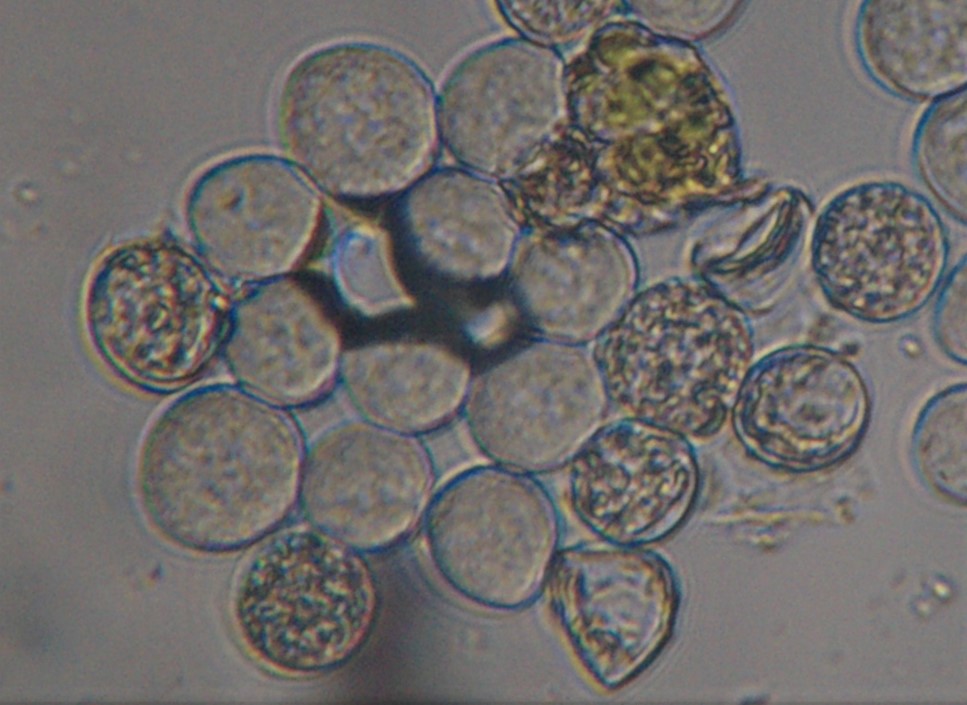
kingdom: Chromista
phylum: Oomycota
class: Peronosporea
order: Albuginales
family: Albuginaceae
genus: Albugo
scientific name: Albugo candida
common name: Crucifer white blister
